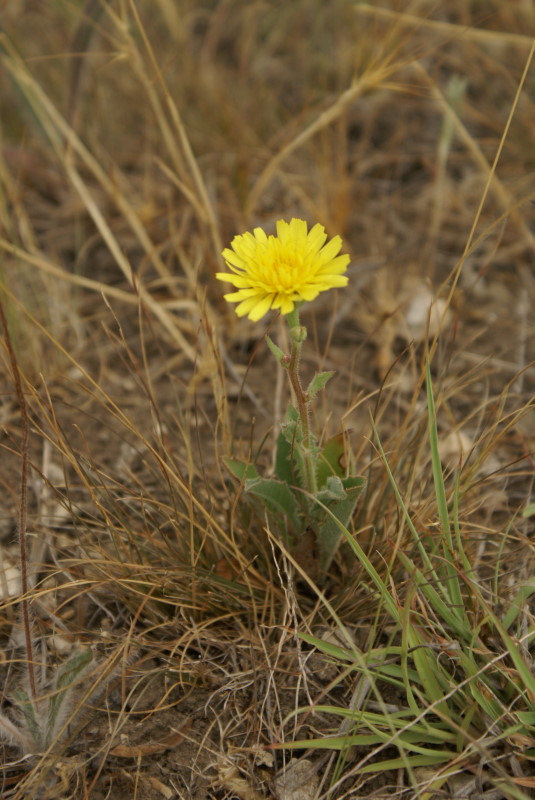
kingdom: Plantae
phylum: Tracheophyta
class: Magnoliopsida
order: Asterales
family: Asteraceae
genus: Crepis
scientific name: Crepis pannonica
